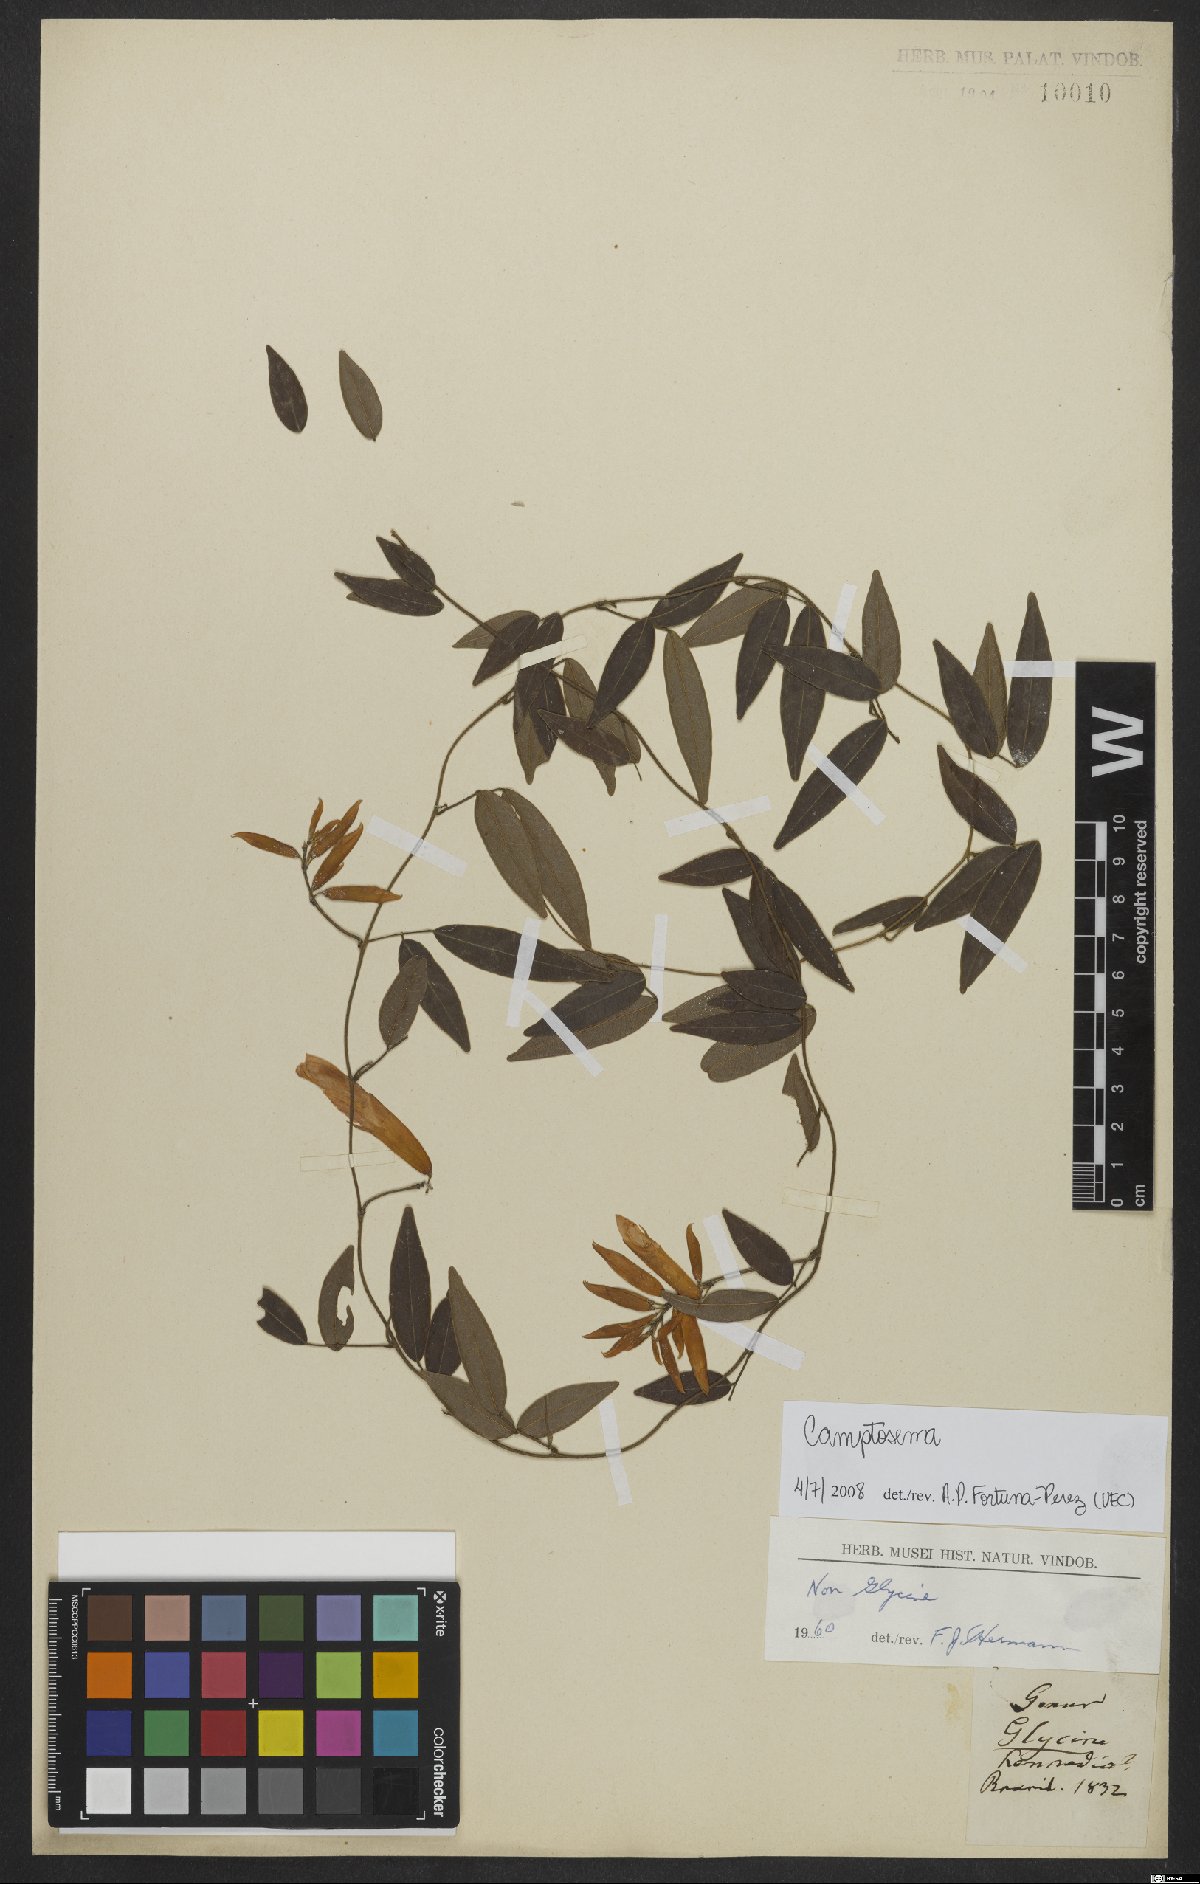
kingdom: Plantae
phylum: Tracheophyta
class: Magnoliopsida
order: Fabales
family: Fabaceae
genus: Camptosema
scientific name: Camptosema
